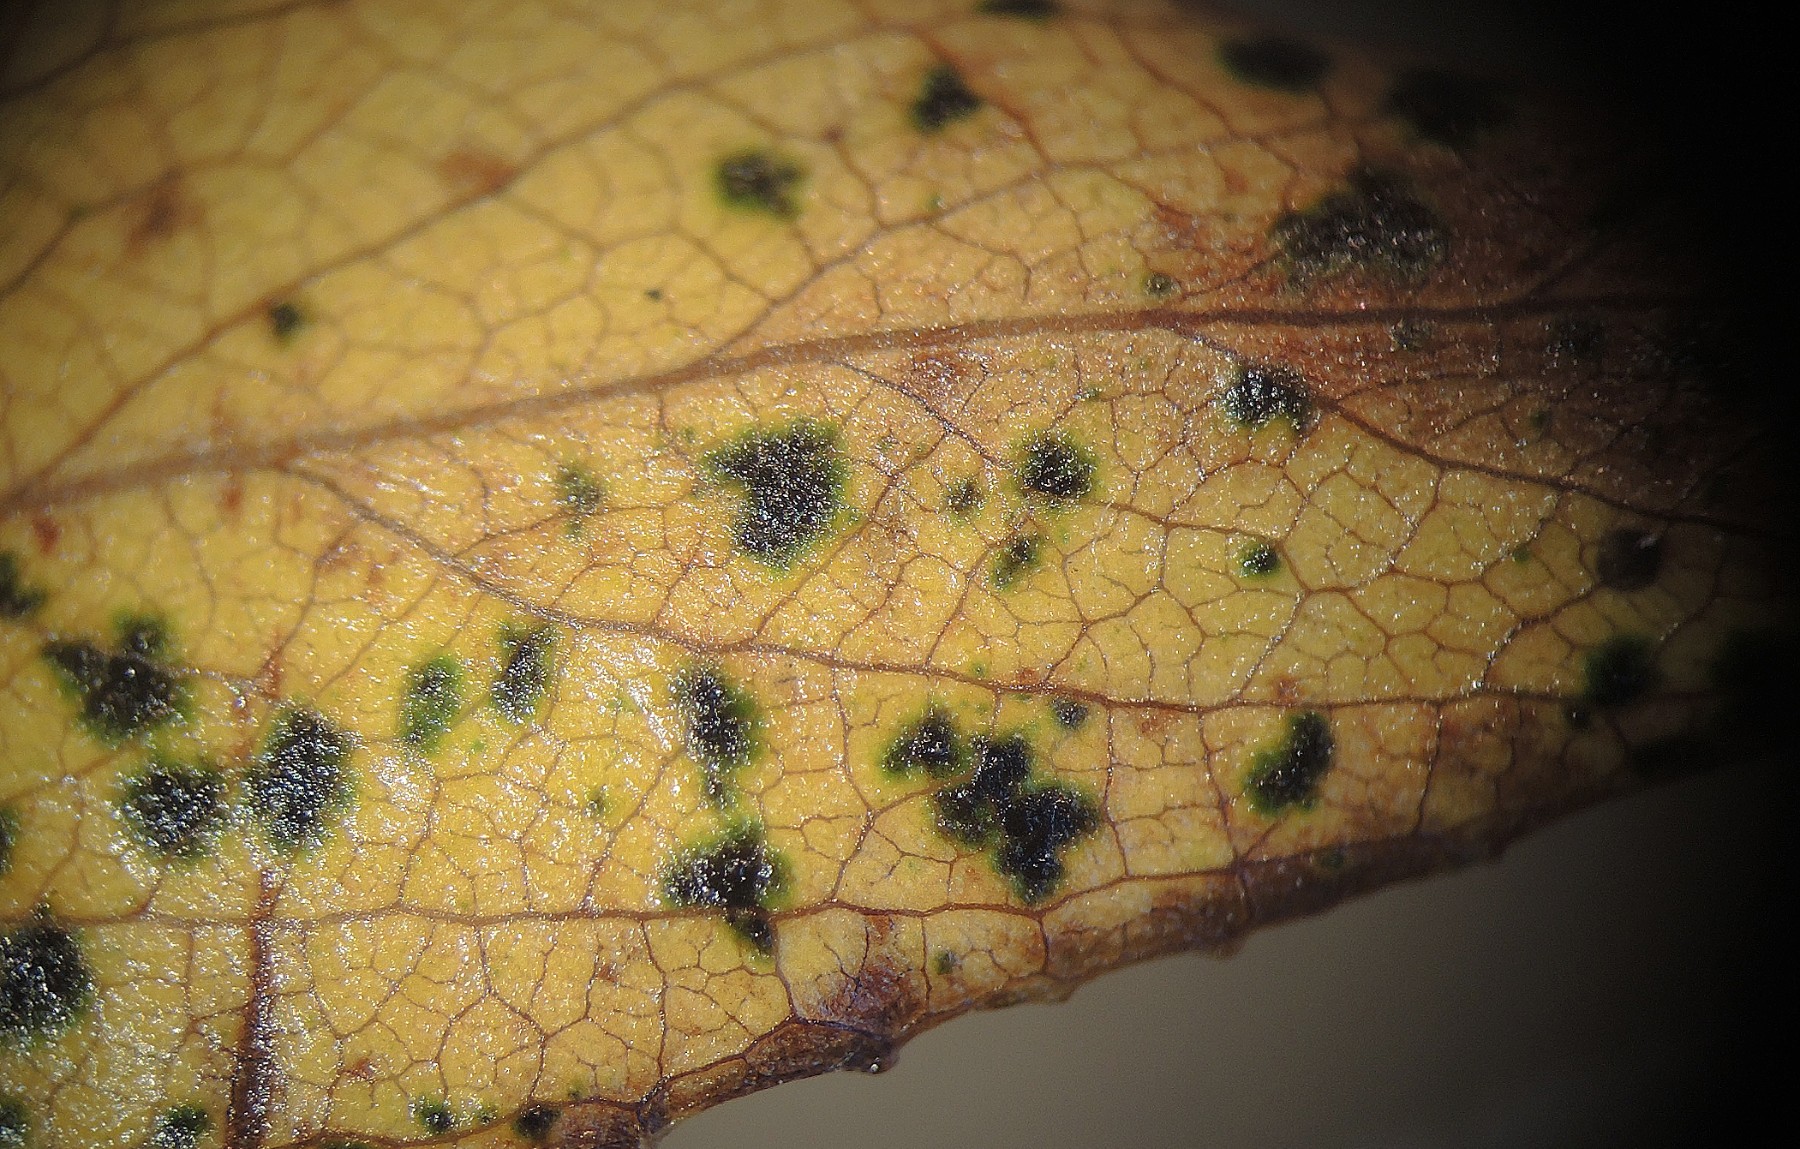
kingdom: Fungi
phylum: Ascomycota
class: Leotiomycetes
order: Helotiales
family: Drepanopezizaceae
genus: Drepanopeziza
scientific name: Drepanopeziza salicis
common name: pile-bladpletskive
